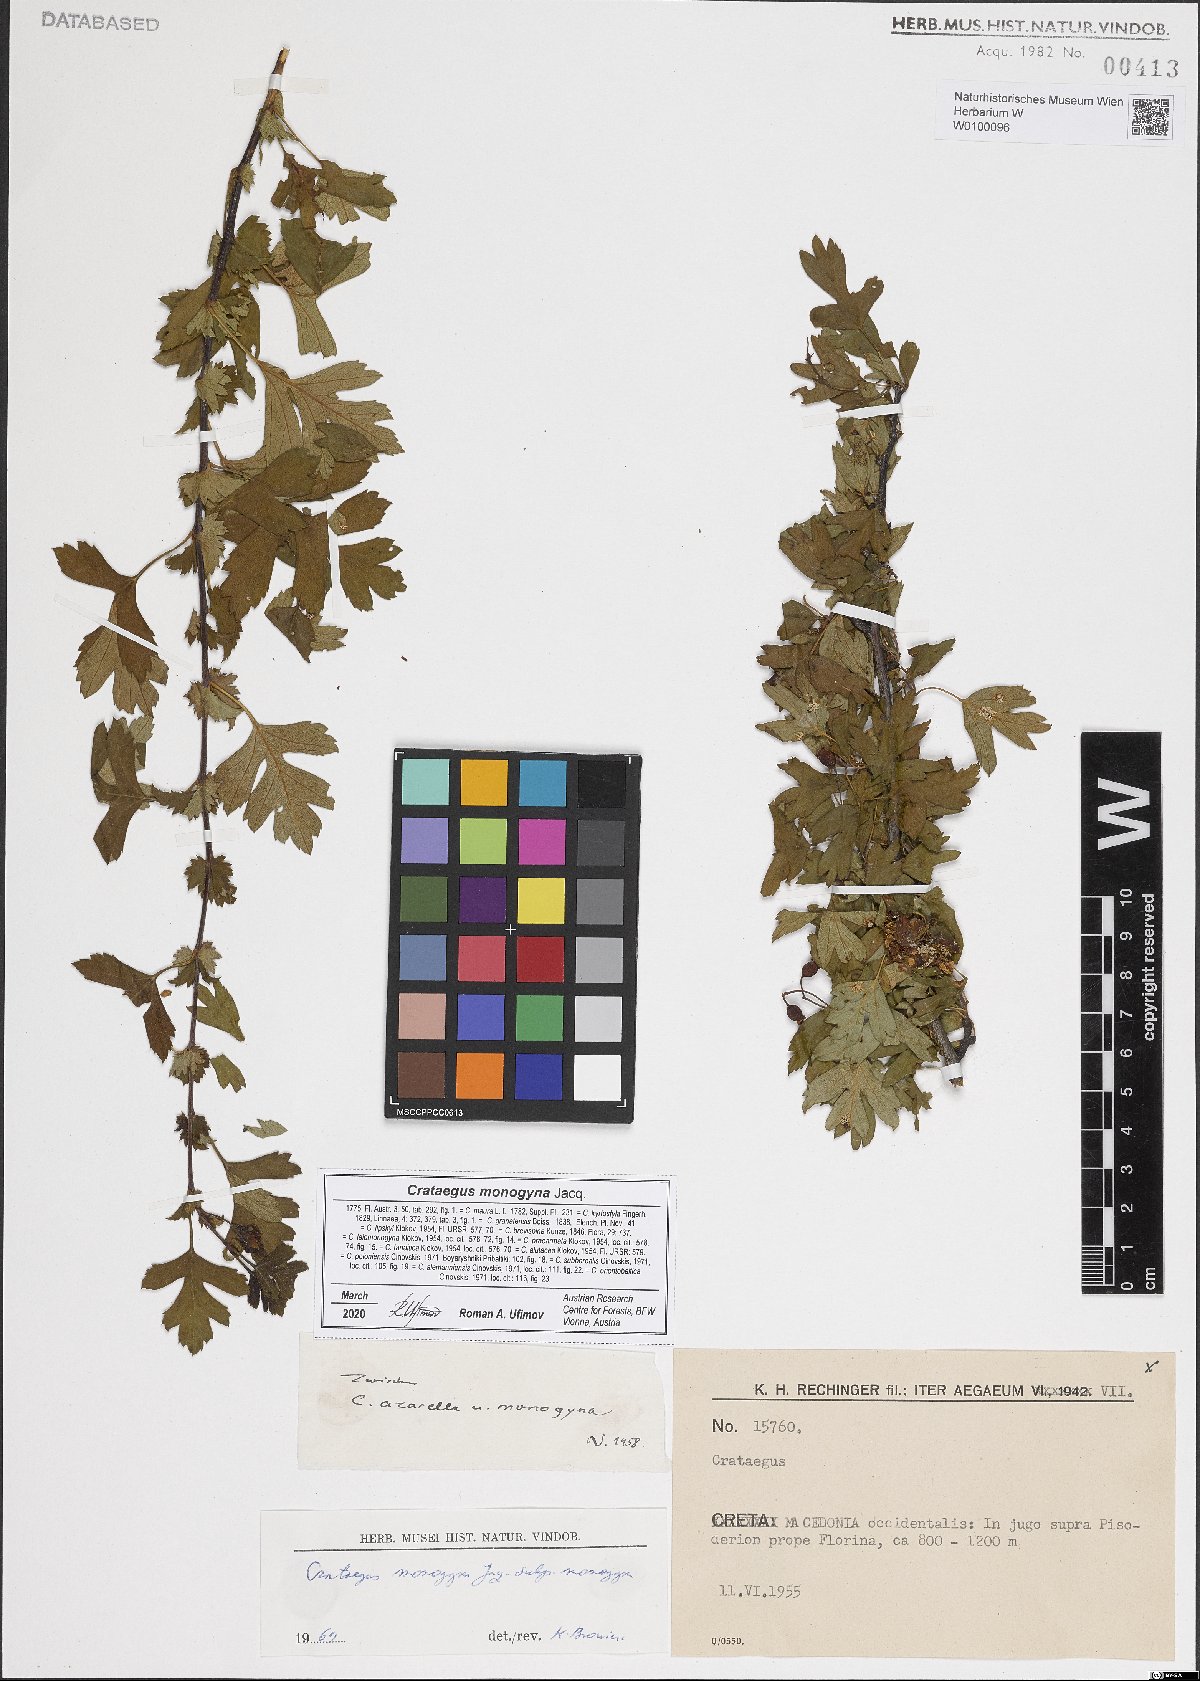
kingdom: Plantae
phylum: Tracheophyta
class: Magnoliopsida
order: Rosales
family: Rosaceae
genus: Crataegus
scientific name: Crataegus monogyna
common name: Hawthorn
